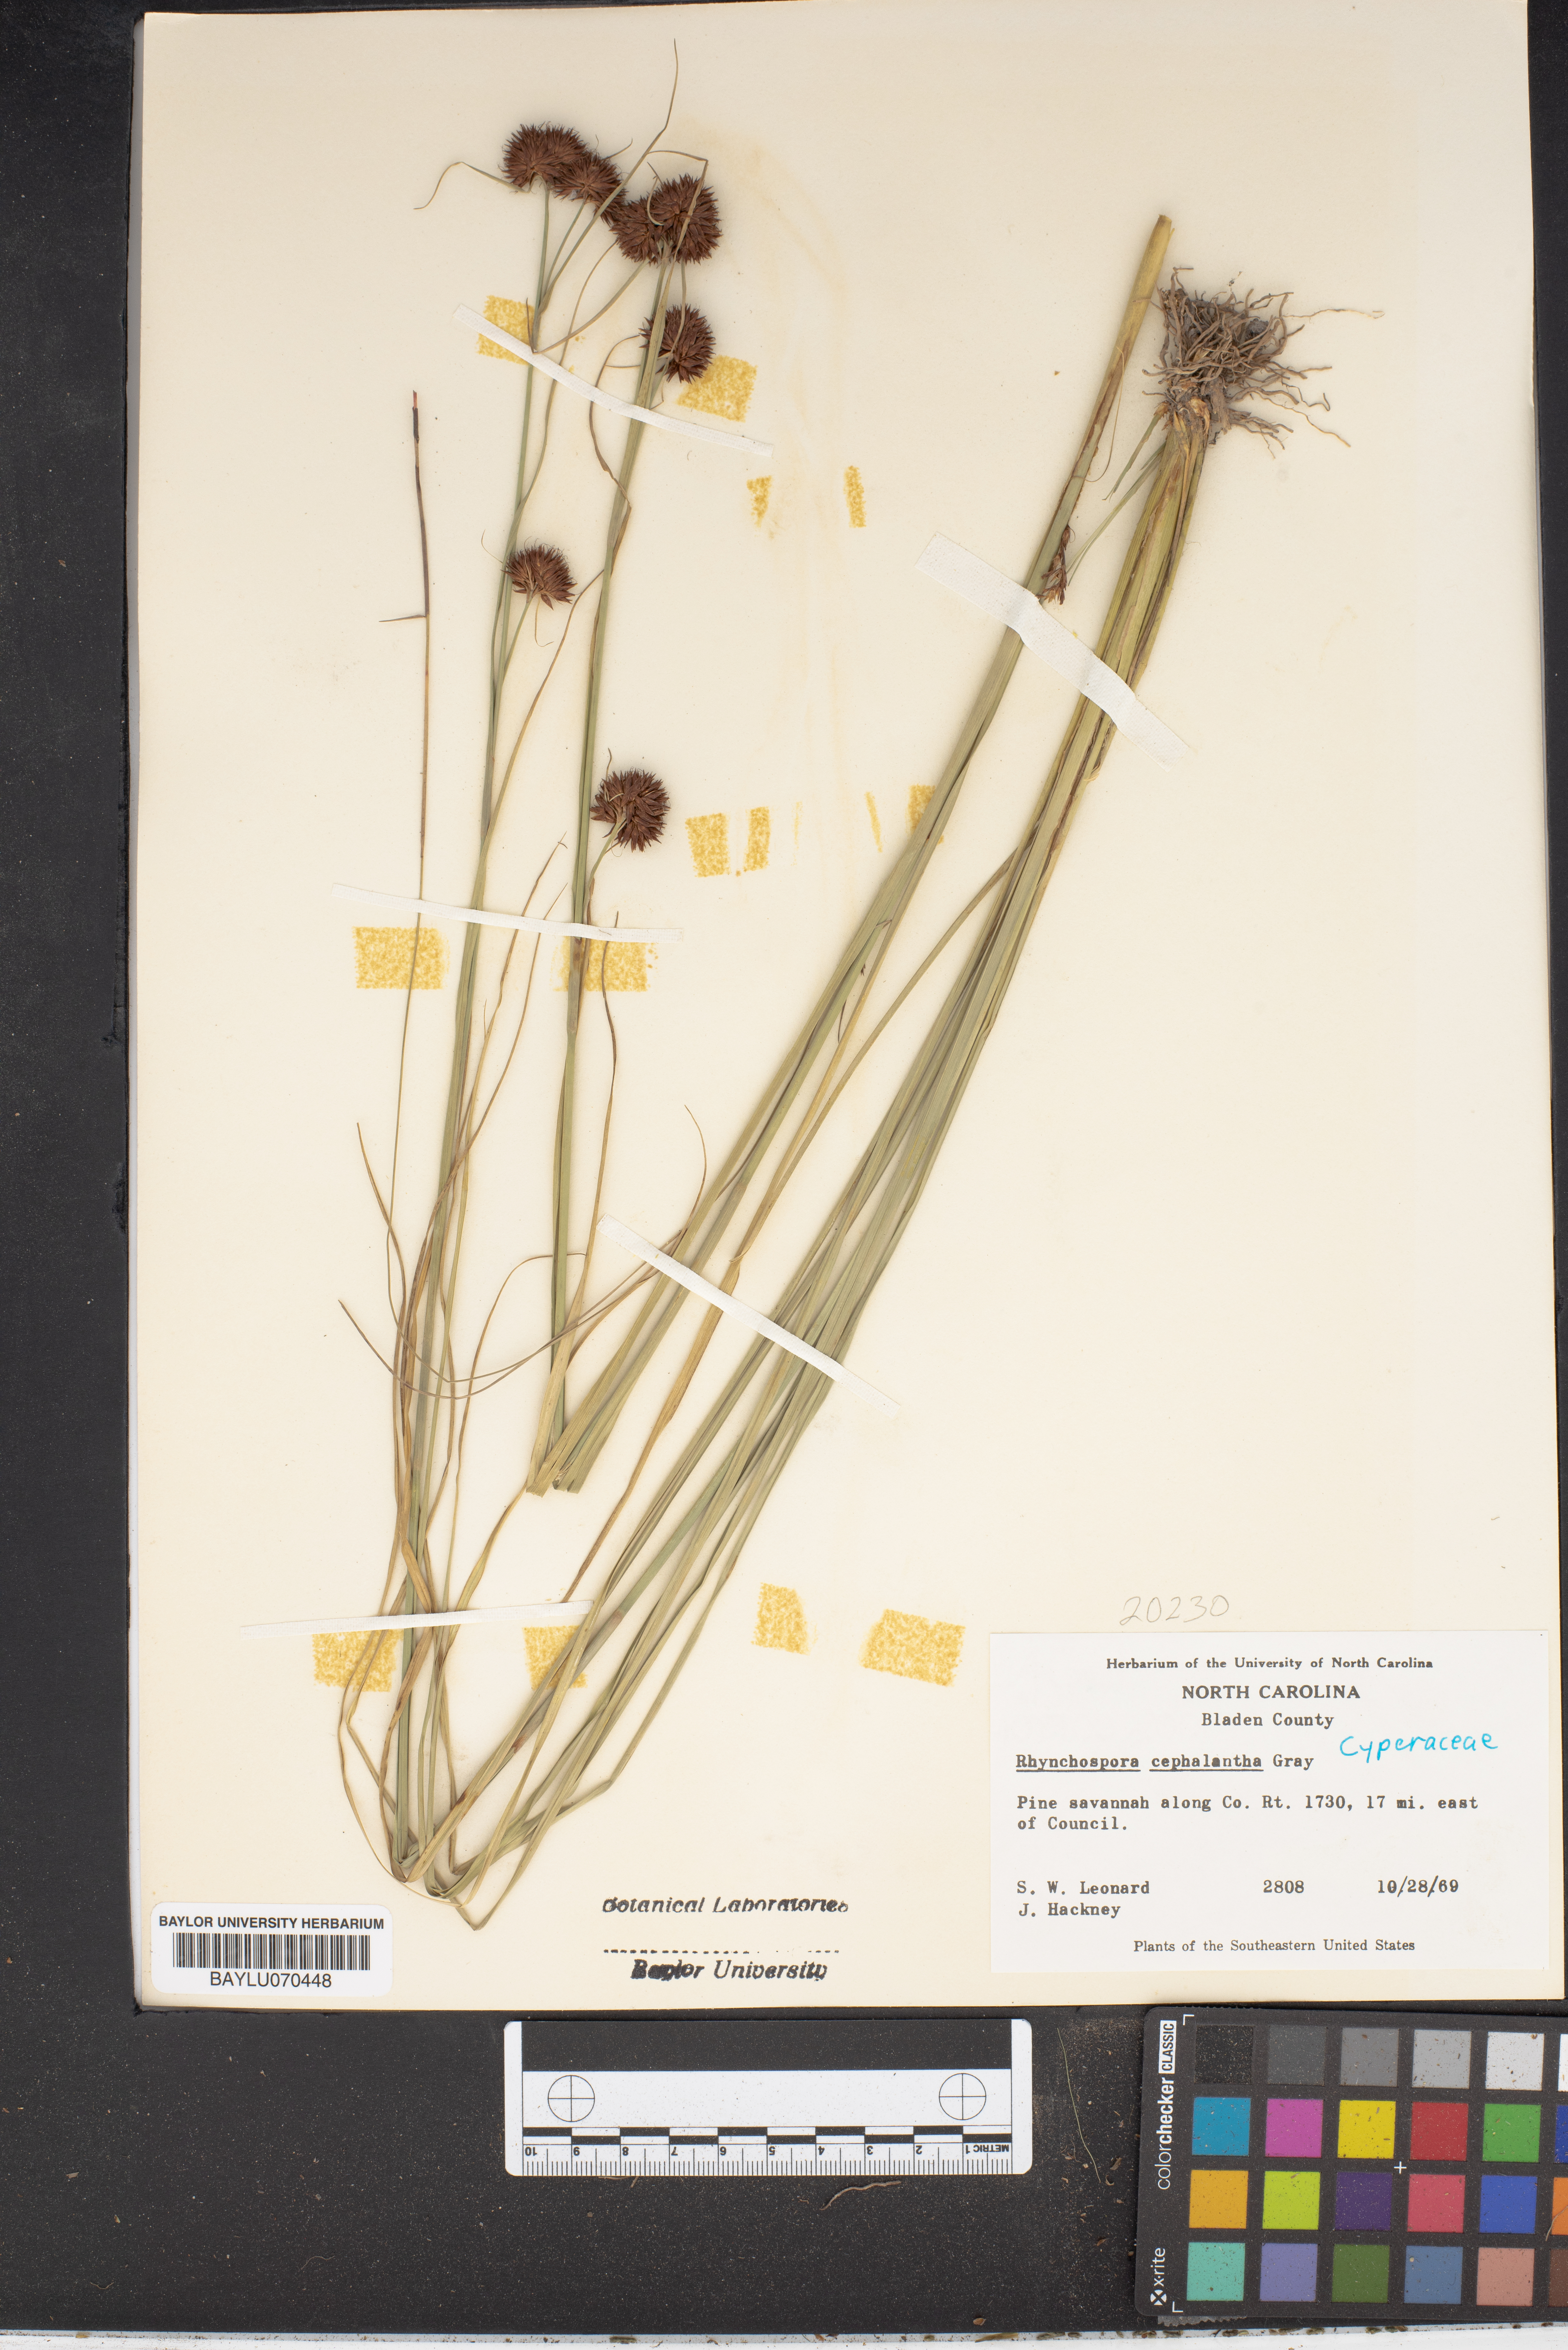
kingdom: Plantae
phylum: Tracheophyta
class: Liliopsida
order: Poales
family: Cyperaceae
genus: Rhynchospora
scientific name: Rhynchospora cephalantha
